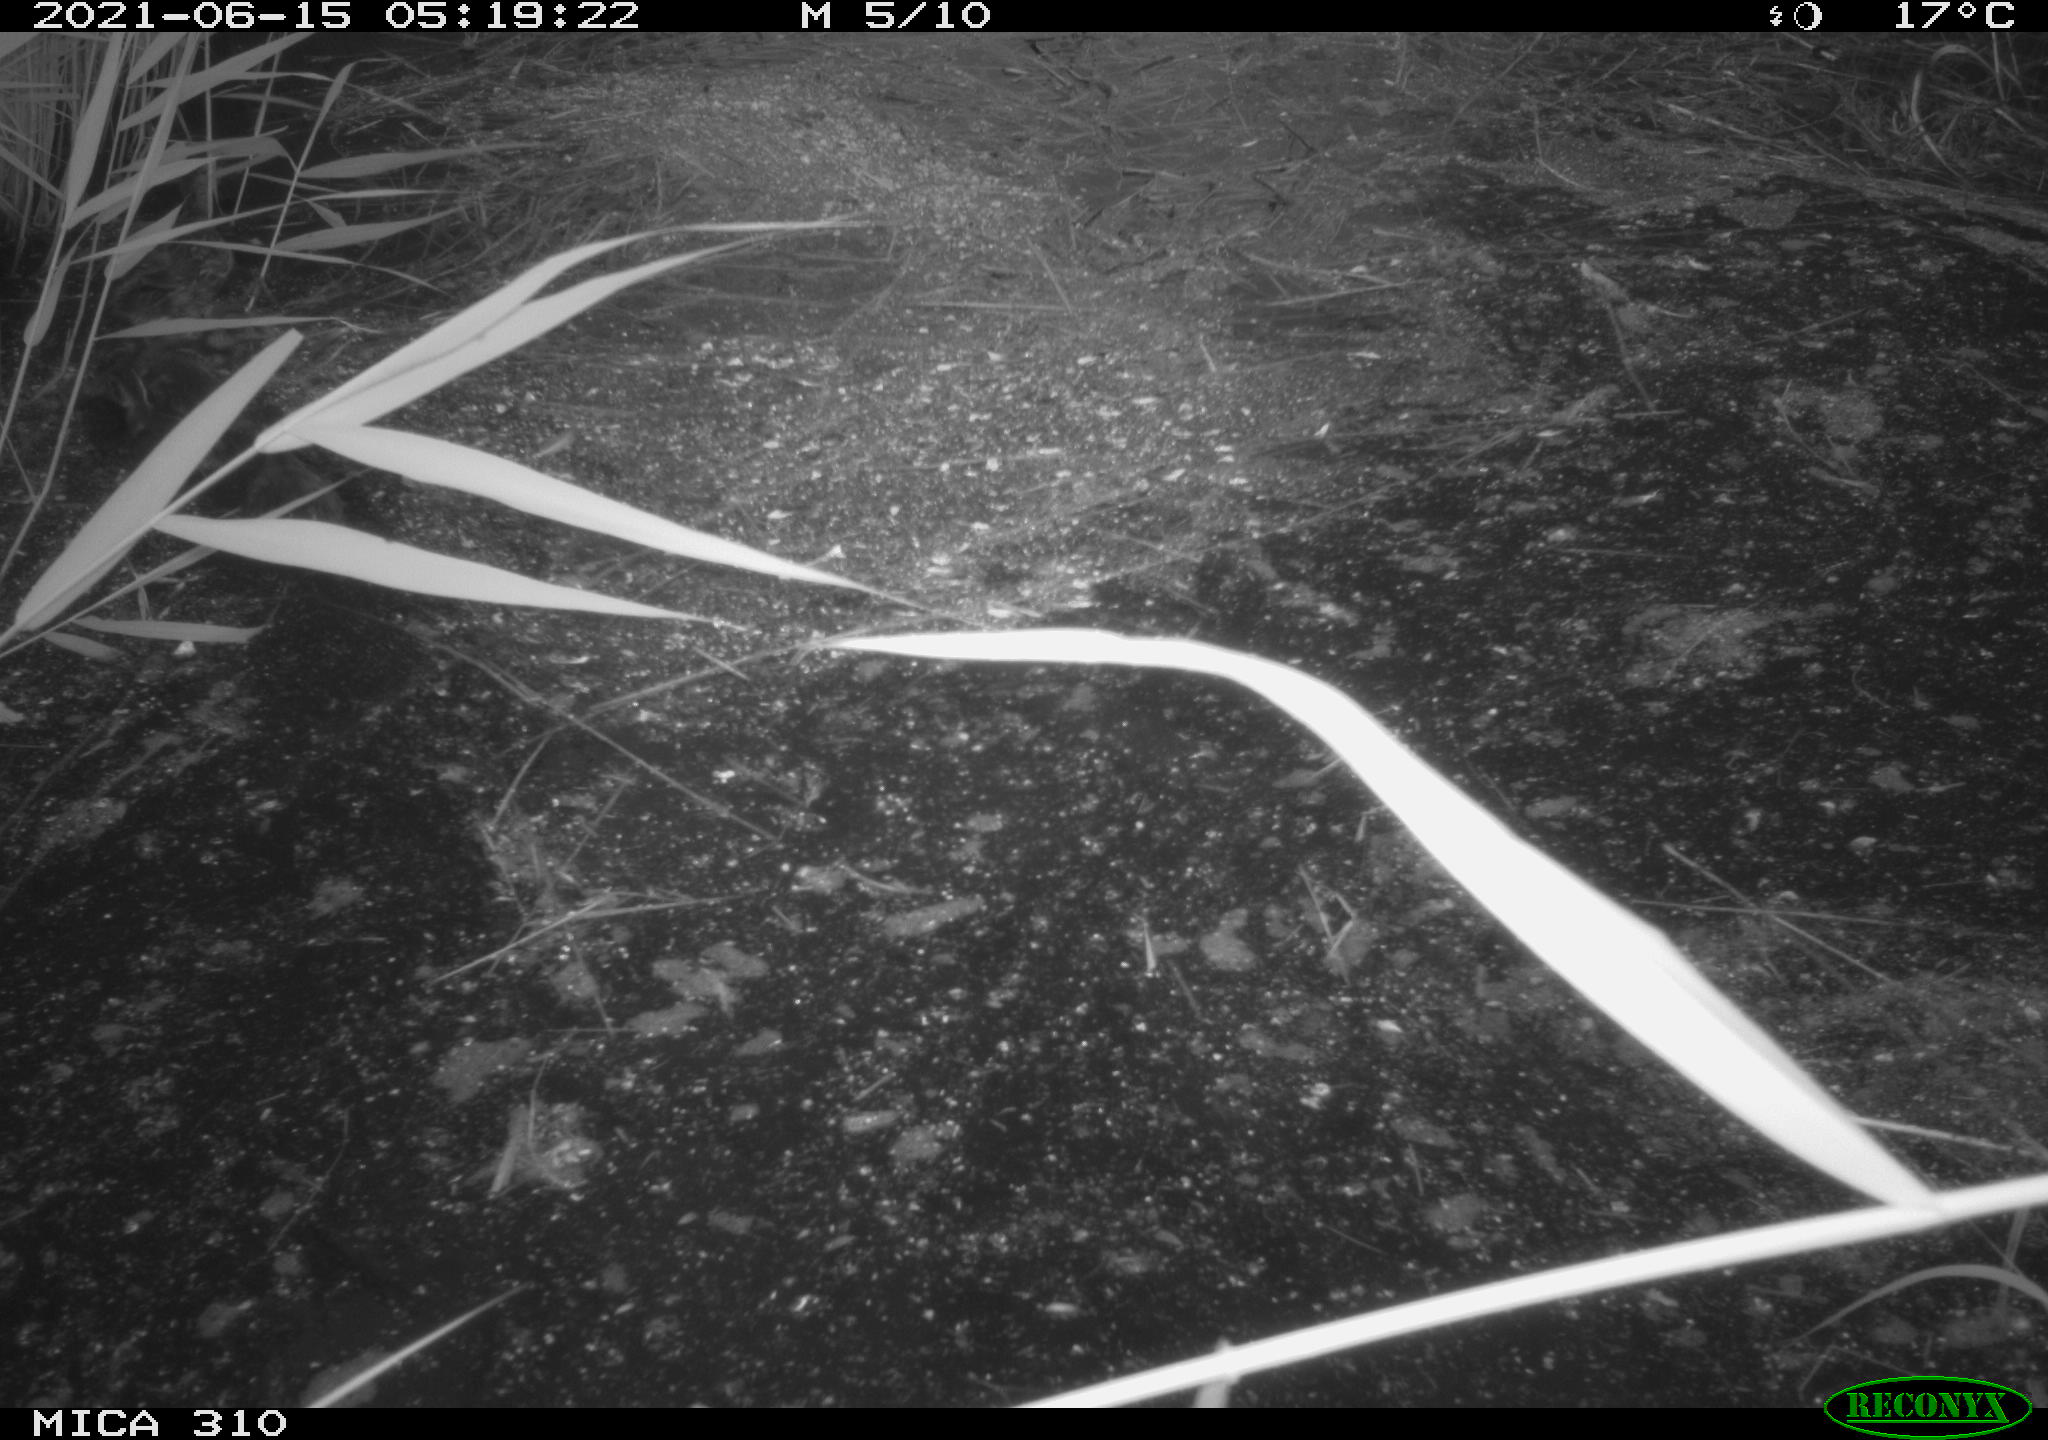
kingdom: Animalia
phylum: Chordata
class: Aves
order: Anseriformes
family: Anatidae
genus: Anas
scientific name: Anas platyrhynchos
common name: Mallard
